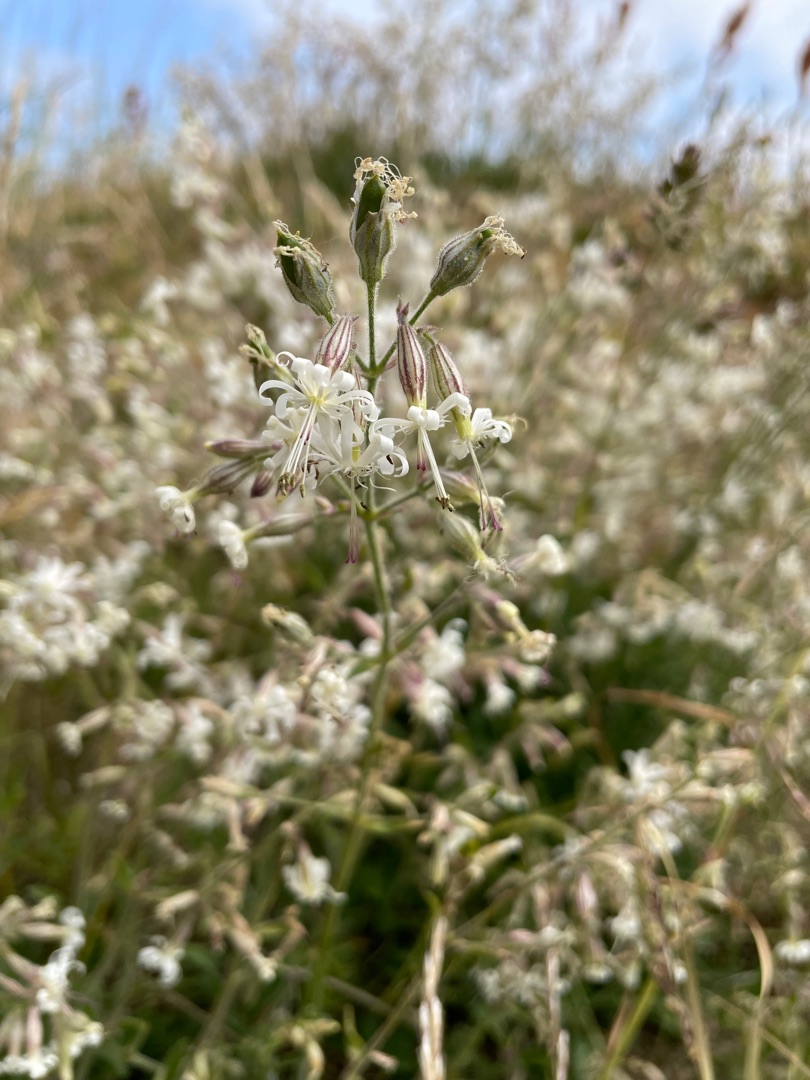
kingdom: Plantae
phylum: Tracheophyta
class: Magnoliopsida
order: Caryophyllales
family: Caryophyllaceae
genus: Silene
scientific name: Silene nutans
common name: Nikkende limurt
